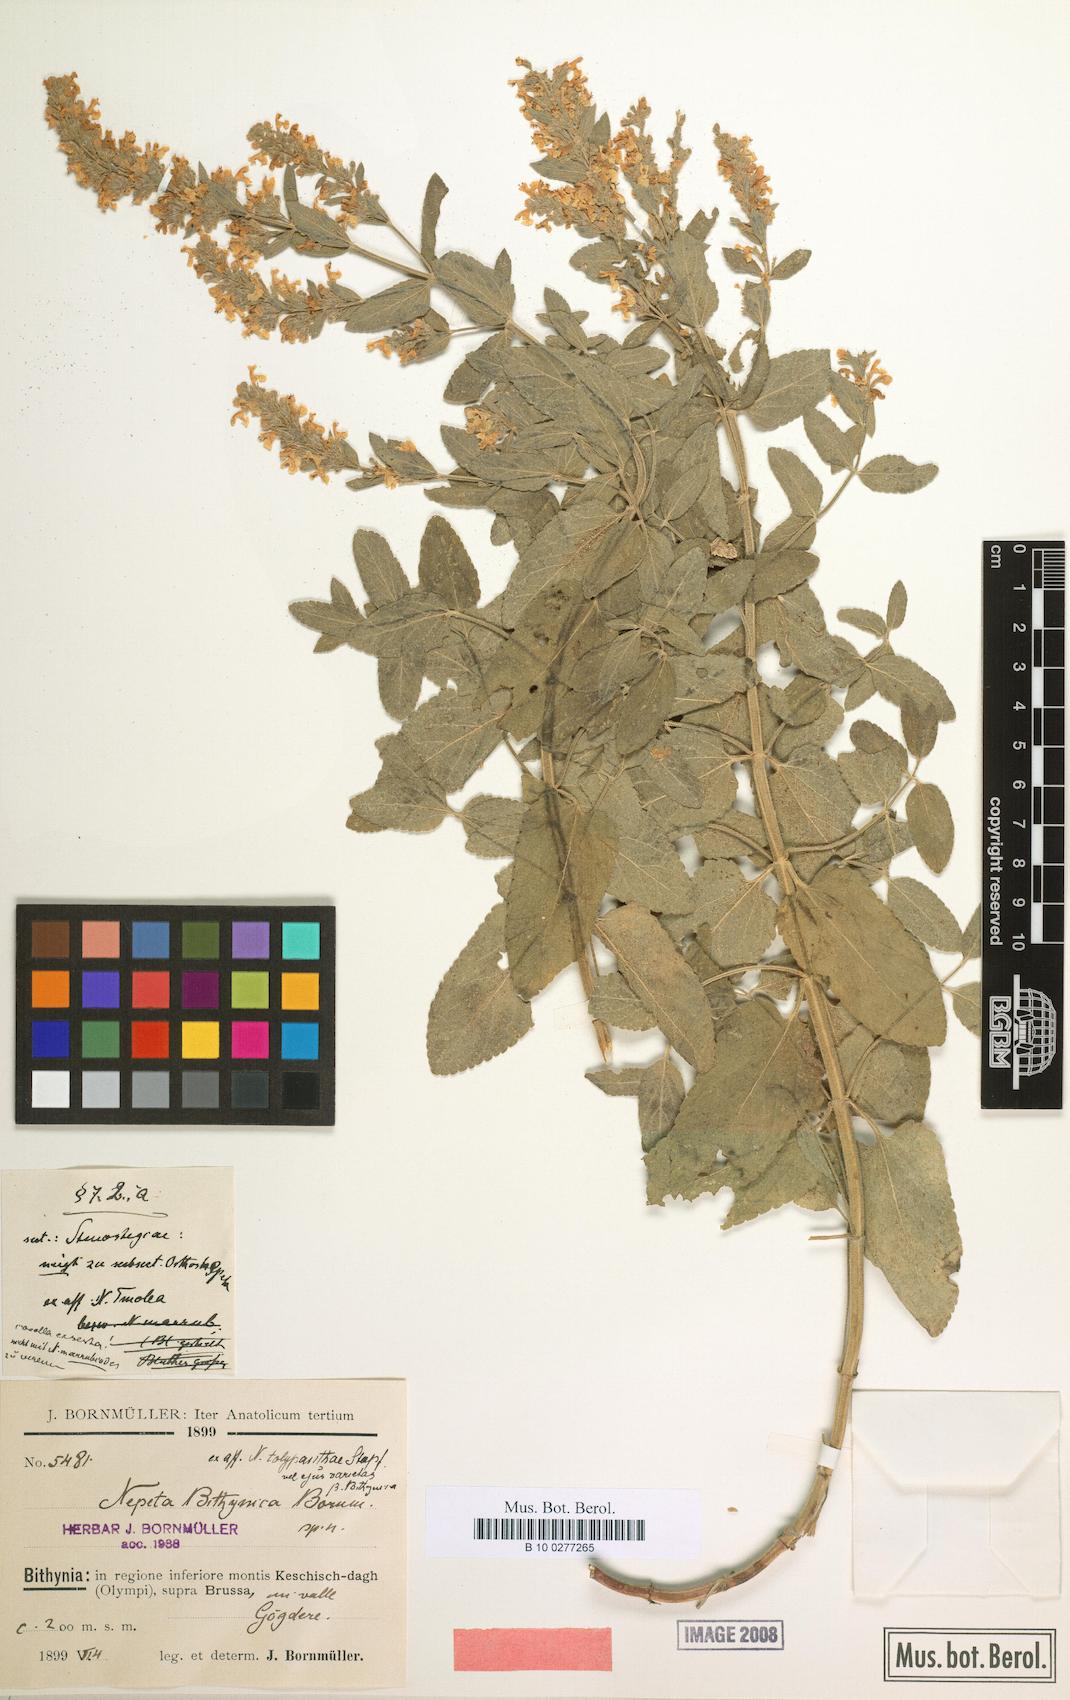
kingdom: Plantae
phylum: Tracheophyta
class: Magnoliopsida
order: Lamiales
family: Lamiaceae
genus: Nepeta
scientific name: Nepeta nuda
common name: Hairless catmint
